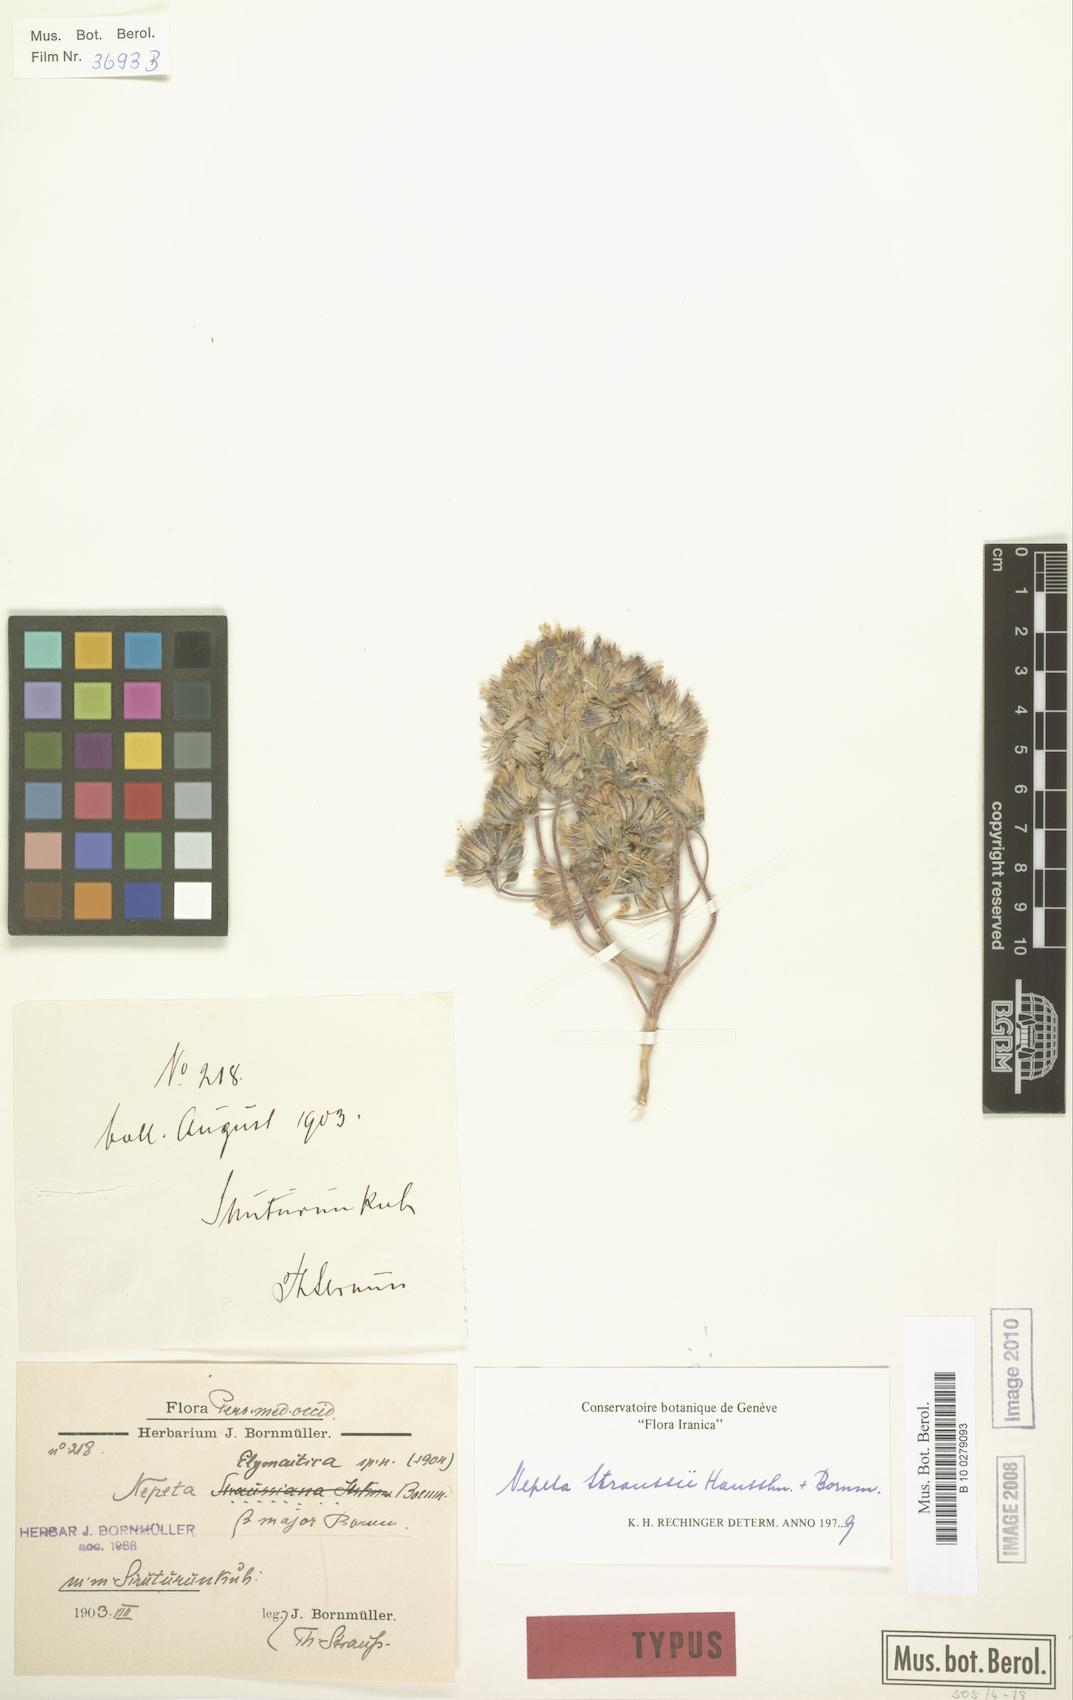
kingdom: Plantae
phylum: Tracheophyta
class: Magnoliopsida
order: Lamiales
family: Lamiaceae
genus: Nepeta
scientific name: Nepeta straussii
